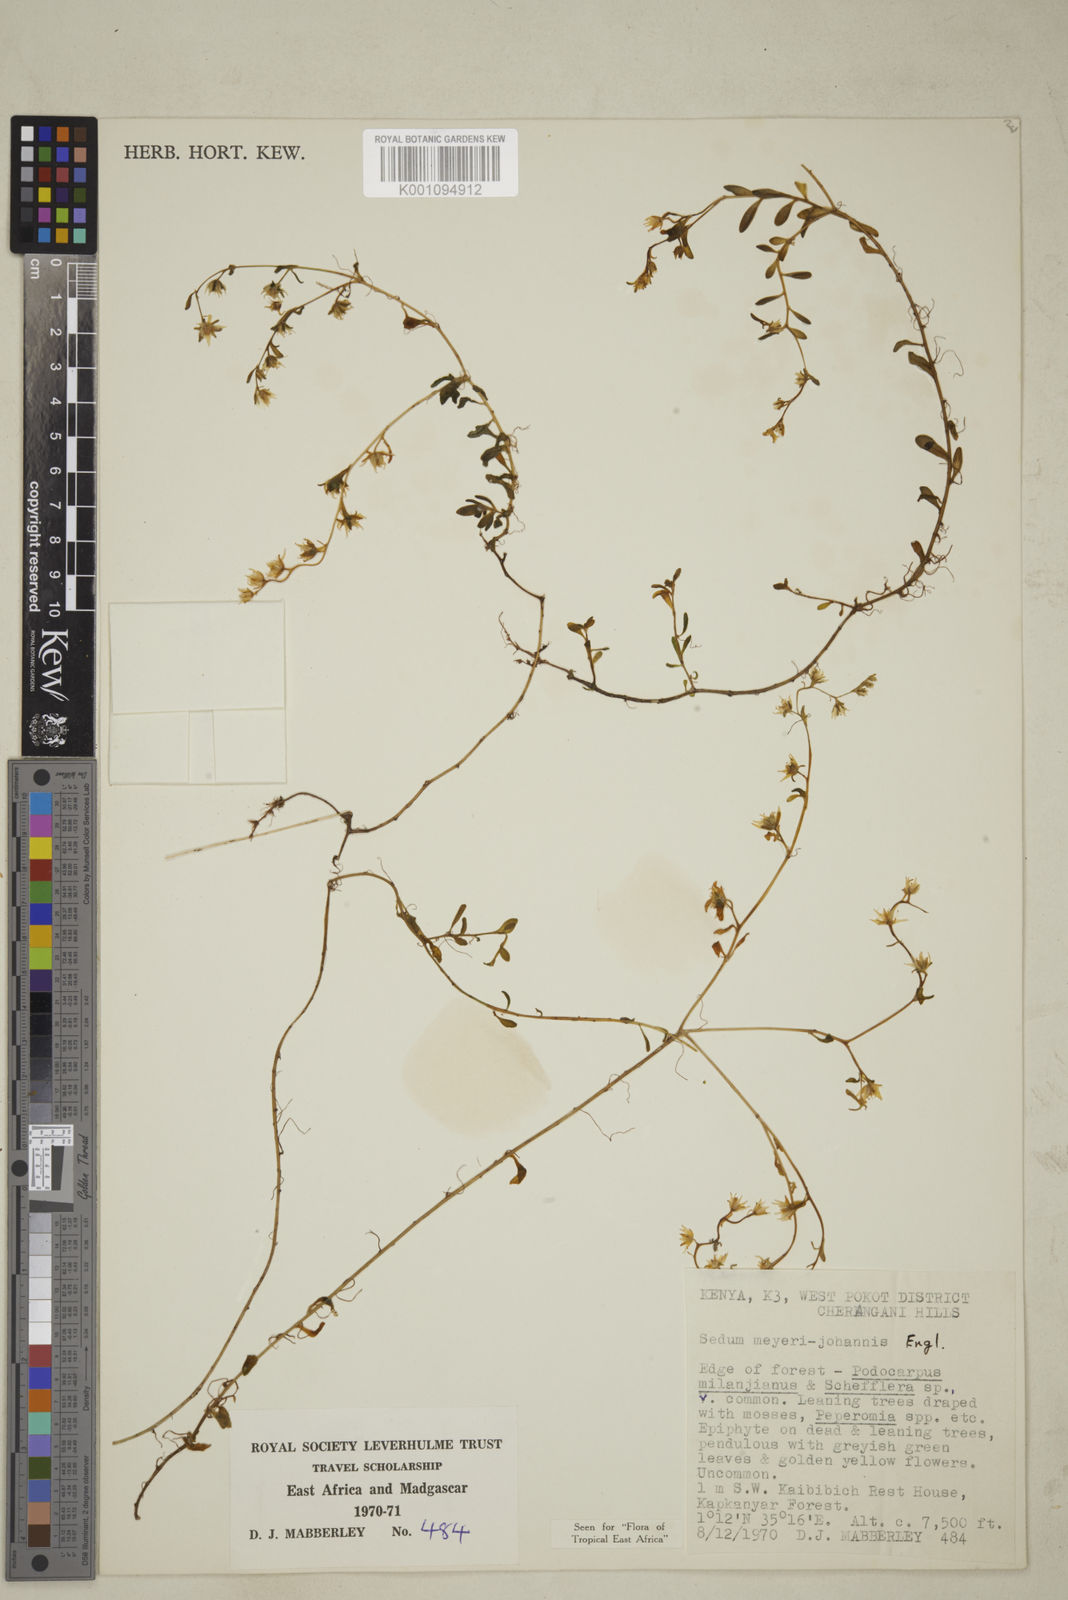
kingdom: Plantae
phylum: Tracheophyta
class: Magnoliopsida
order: Saxifragales
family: Crassulaceae
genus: Sedum
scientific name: Sedum meyeri-johannis
